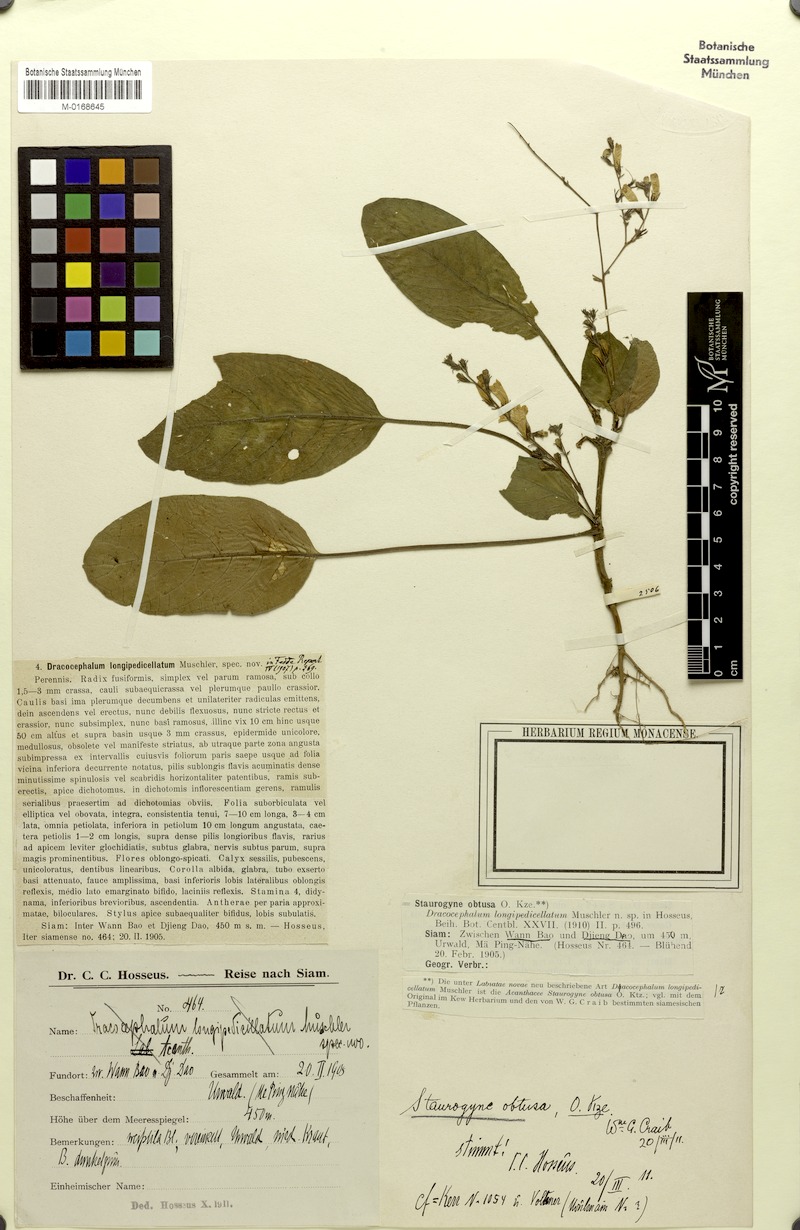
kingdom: Plantae
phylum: Tracheophyta
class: Magnoliopsida
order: Lamiales
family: Acanthaceae
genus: Staurogyne
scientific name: Staurogyne obtusa
